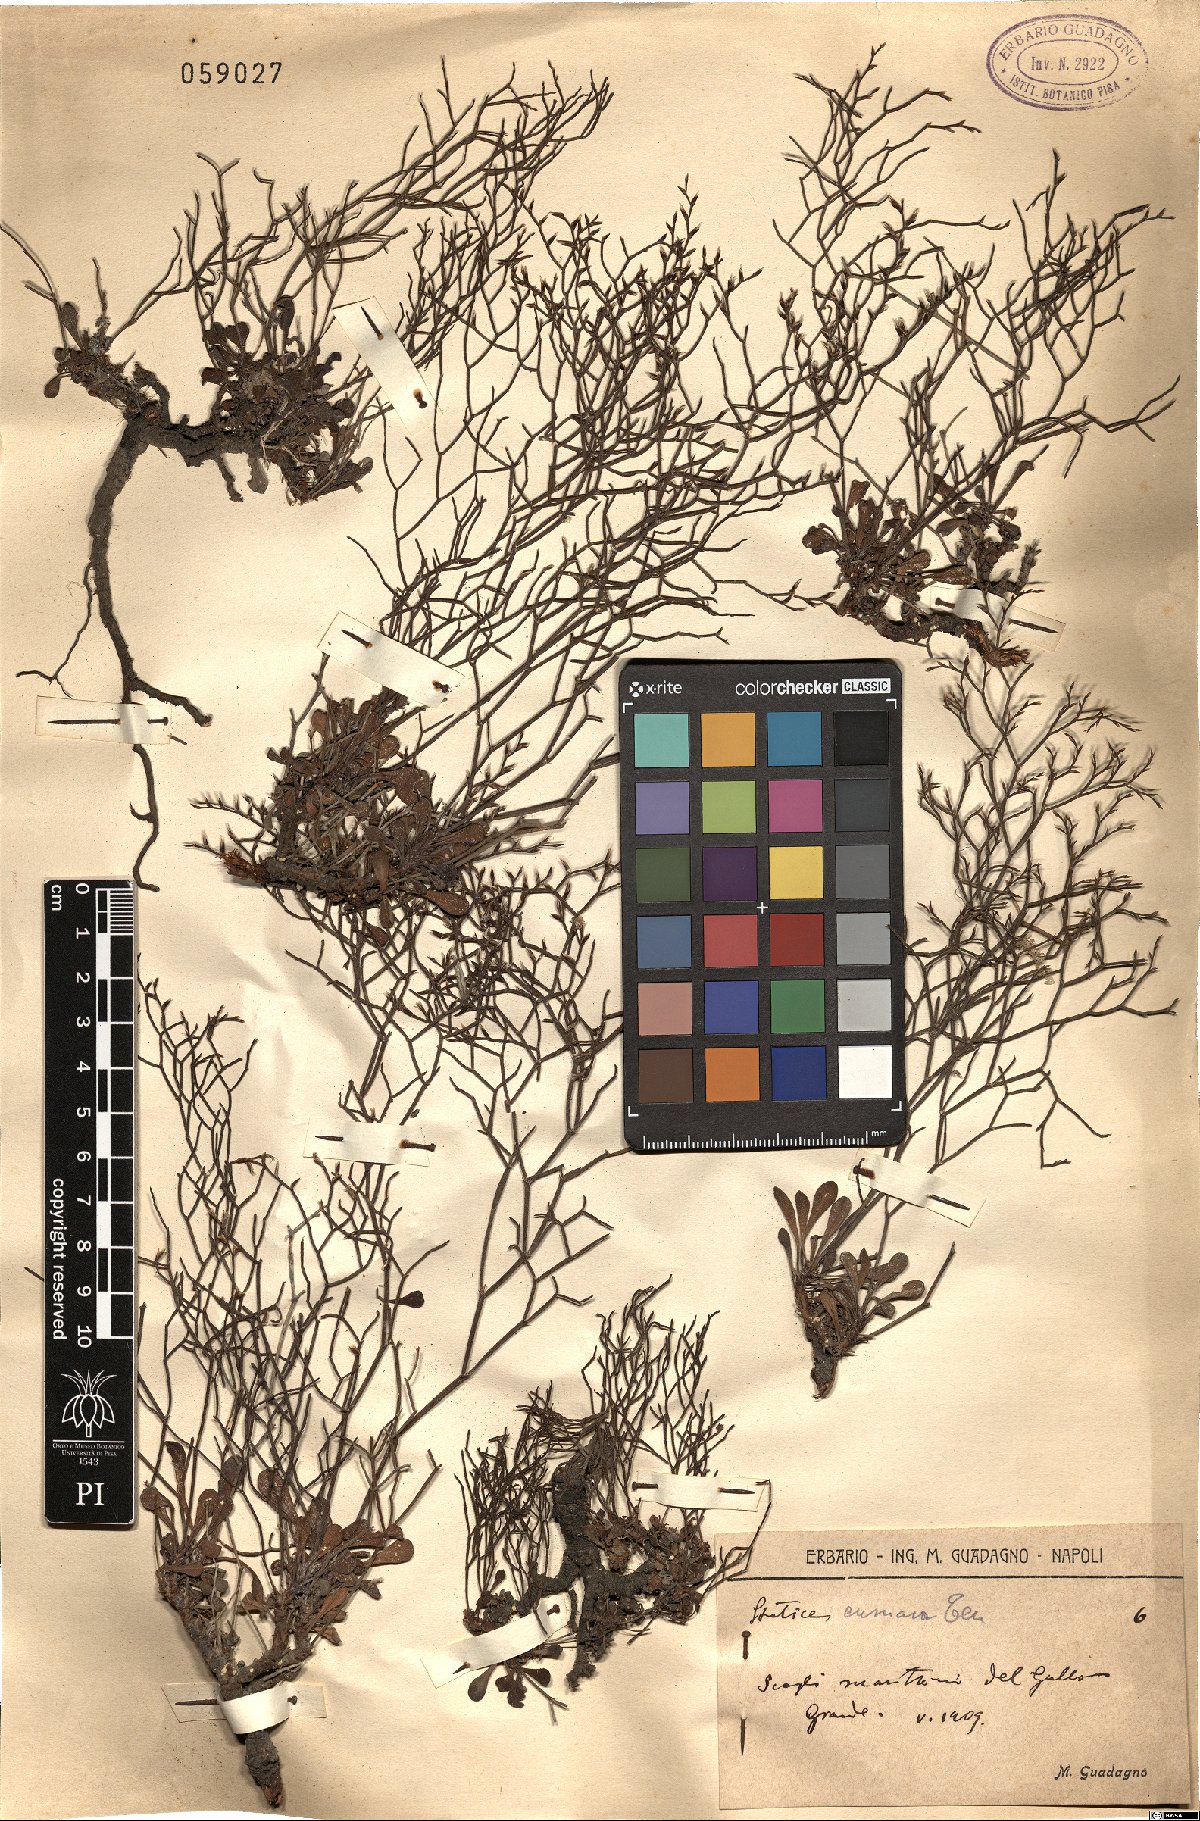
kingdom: Plantae
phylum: Tracheophyta
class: Magnoliopsida
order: Caryophyllales
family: Plumbaginaceae
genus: Limonium
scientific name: Limonium cumanum
